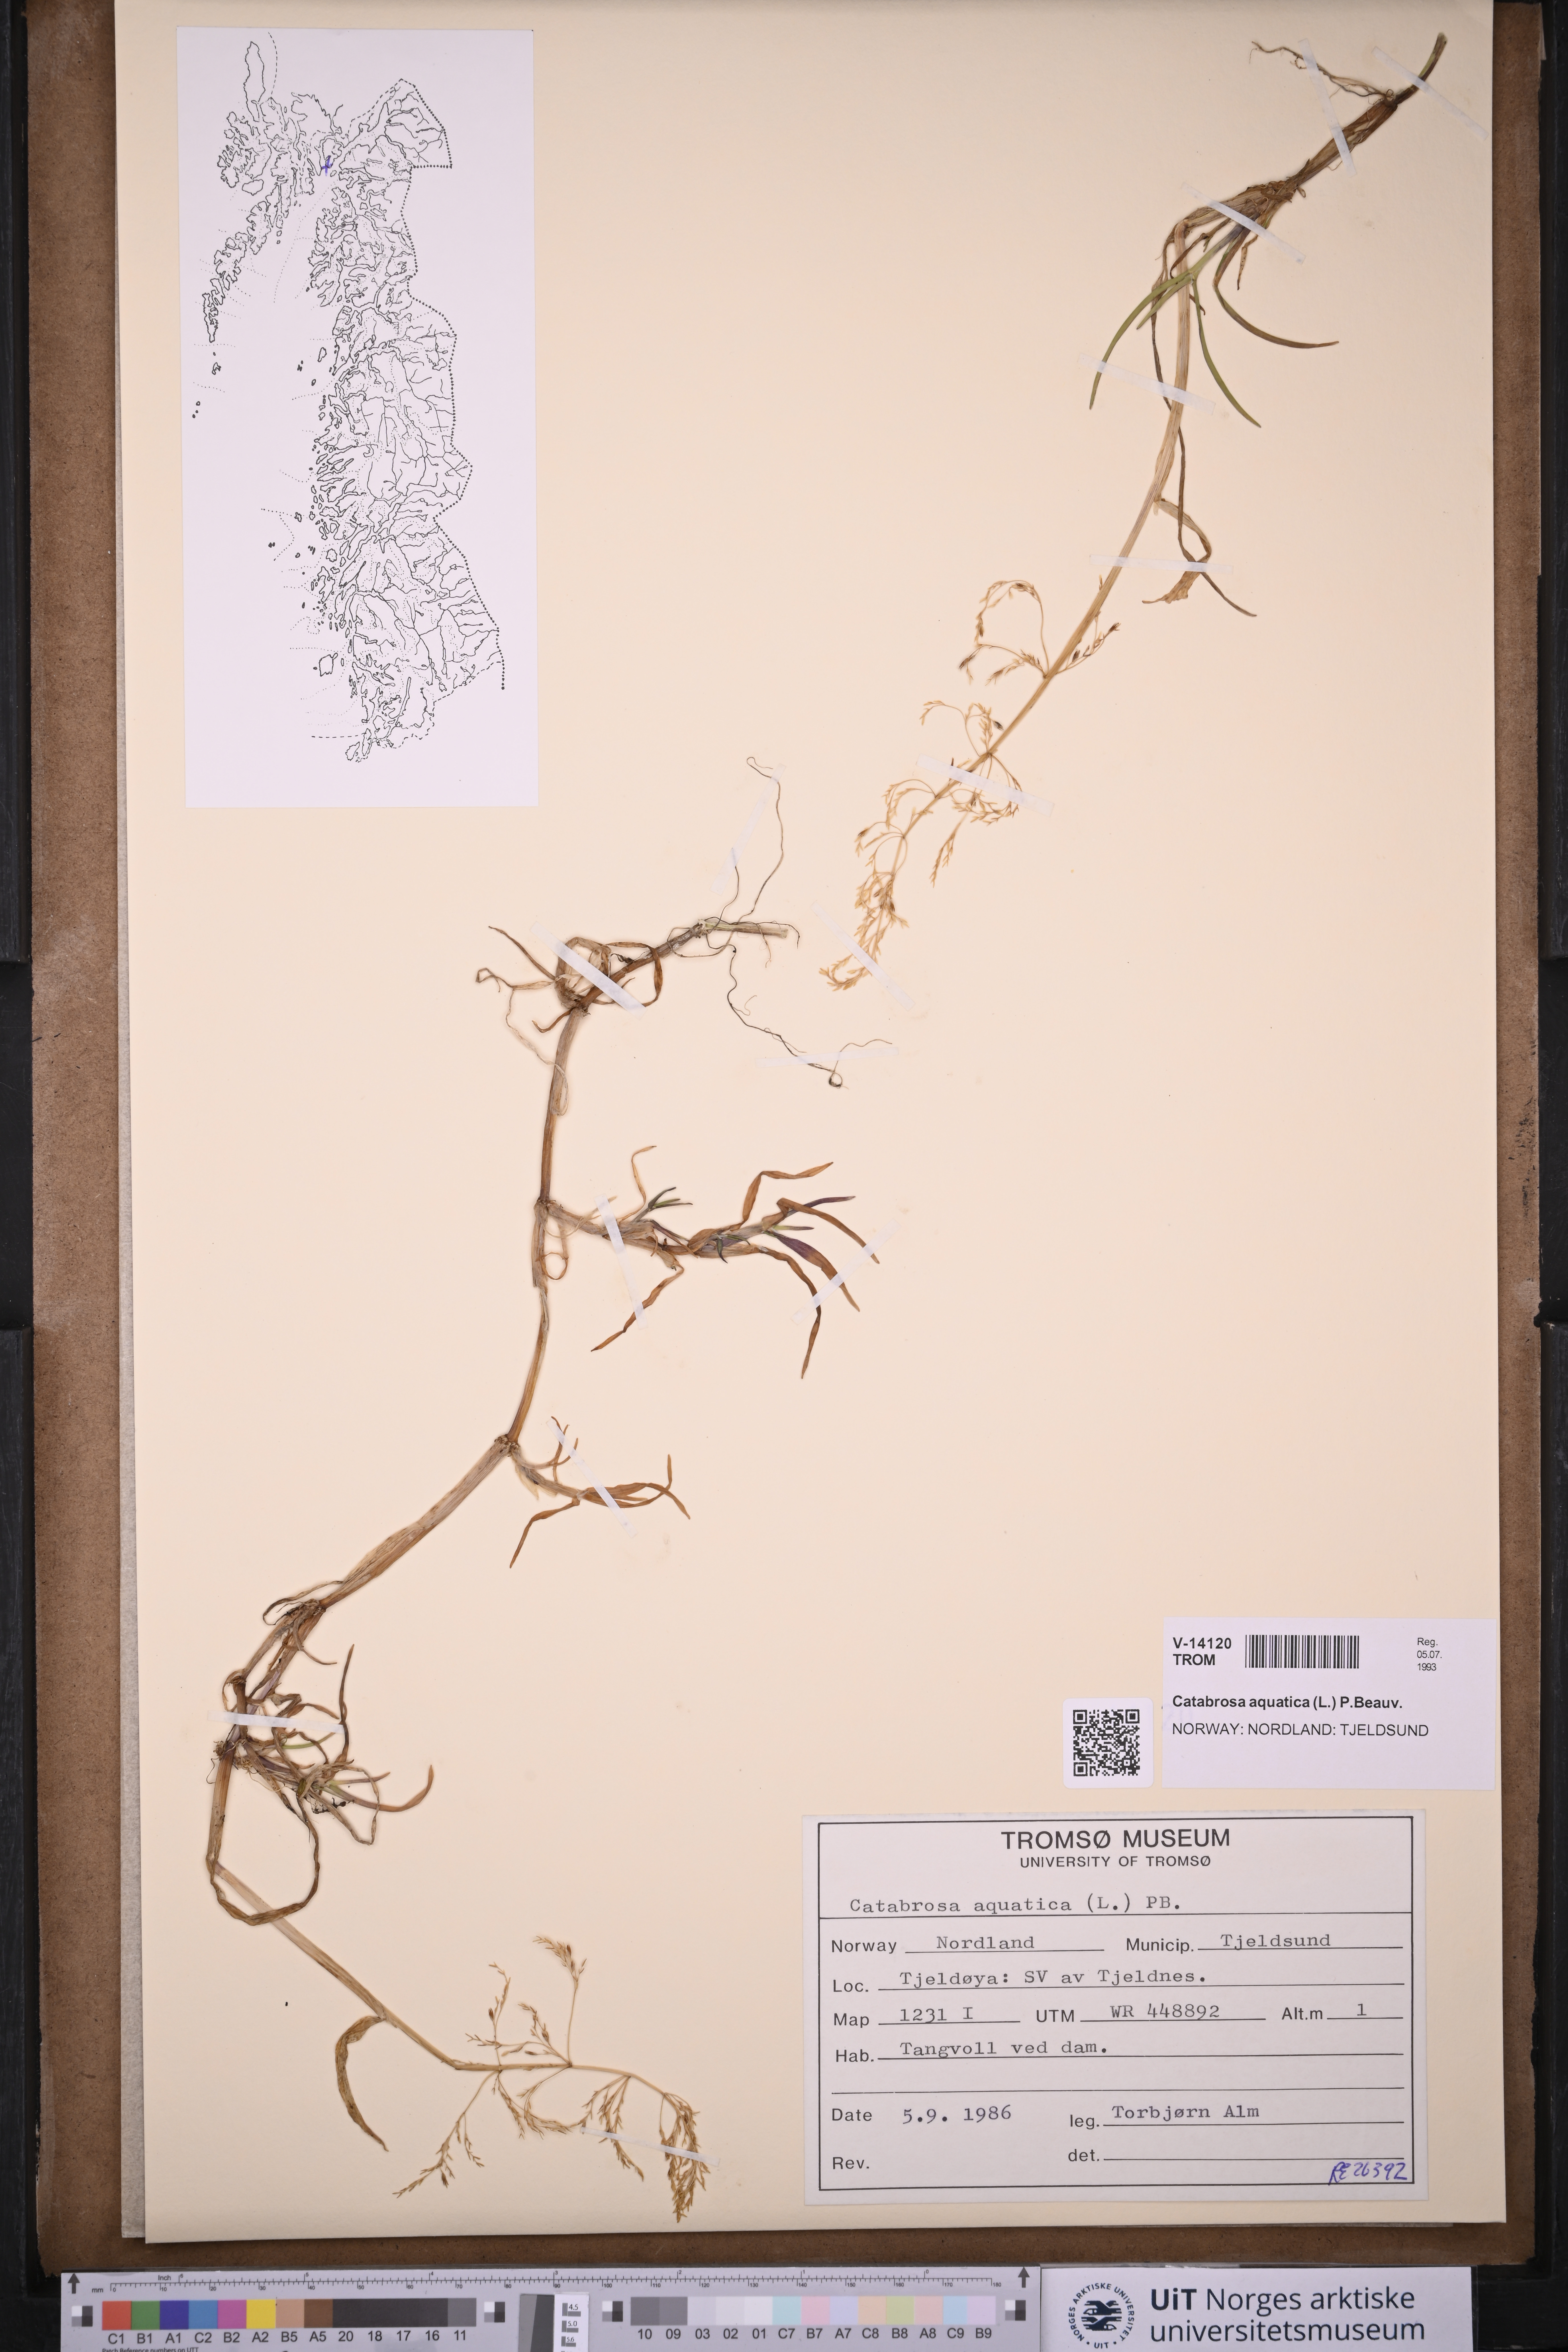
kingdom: Plantae
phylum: Tracheophyta
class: Liliopsida
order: Poales
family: Poaceae
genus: Catabrosa
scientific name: Catabrosa aquatica
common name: Whorl-grass
